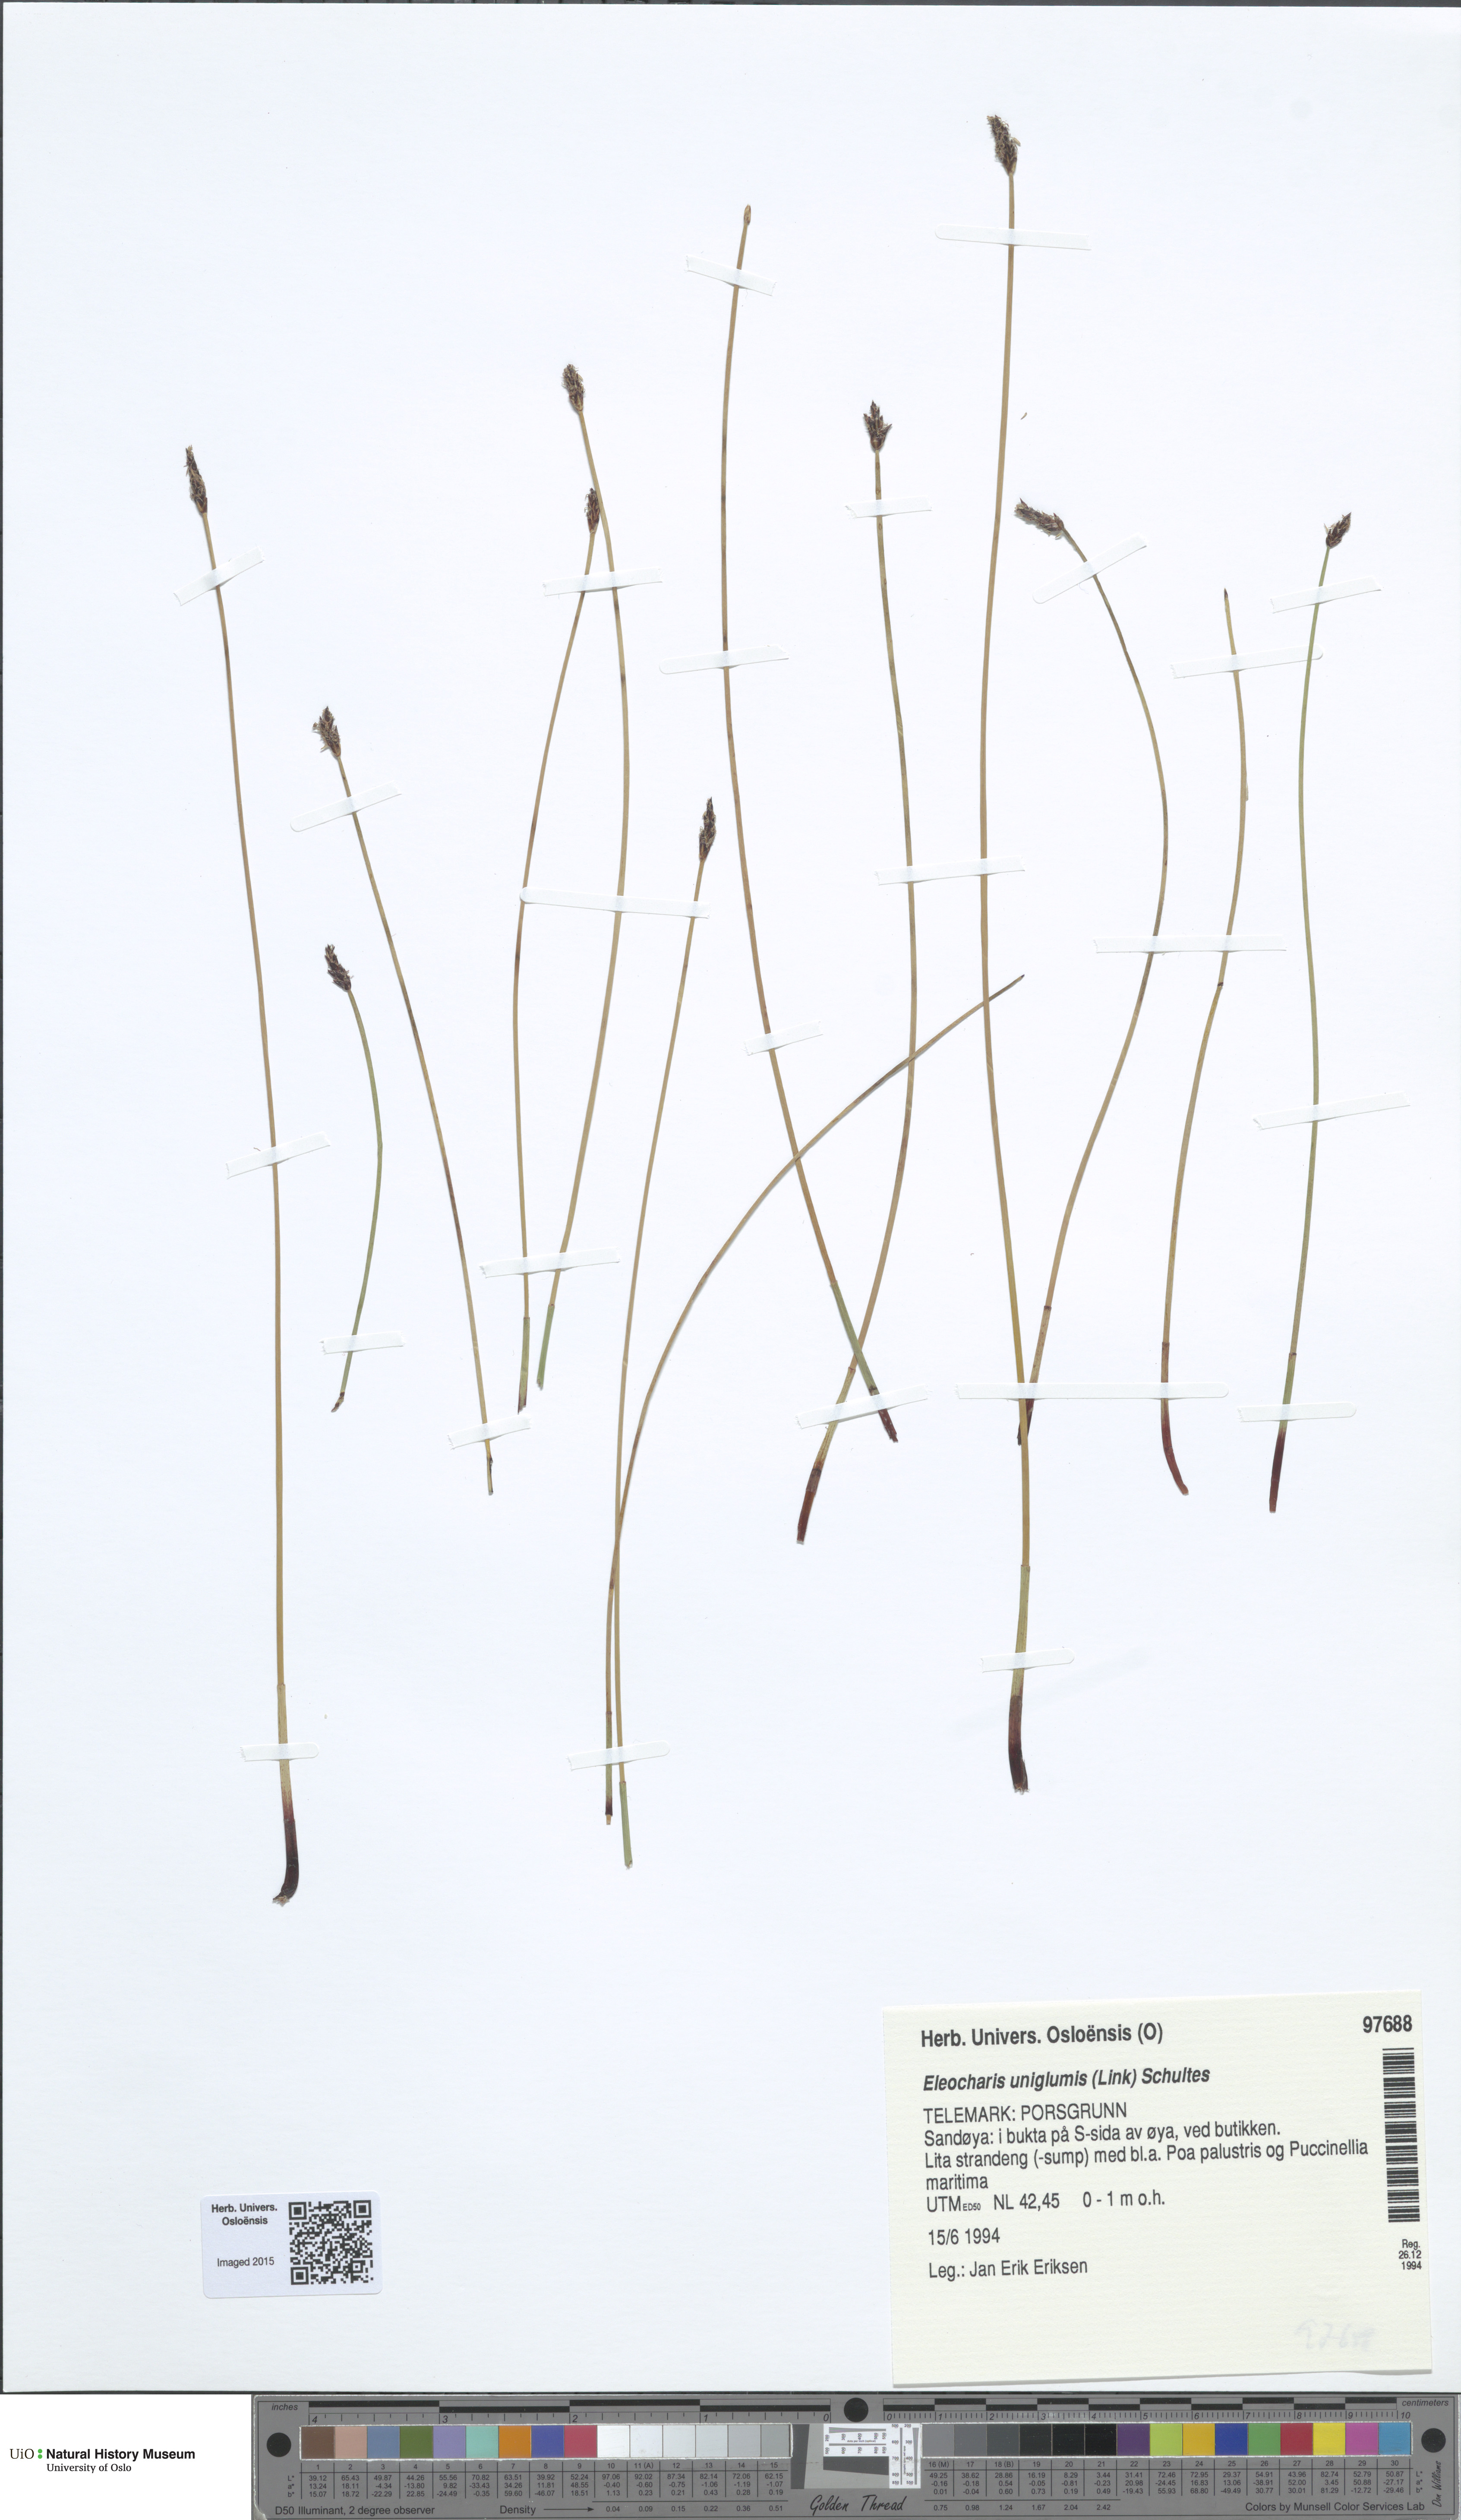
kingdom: Plantae
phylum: Tracheophyta
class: Liliopsida
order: Poales
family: Cyperaceae
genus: Eleocharis
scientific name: Eleocharis uniglumis
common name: Slender spike-rush
